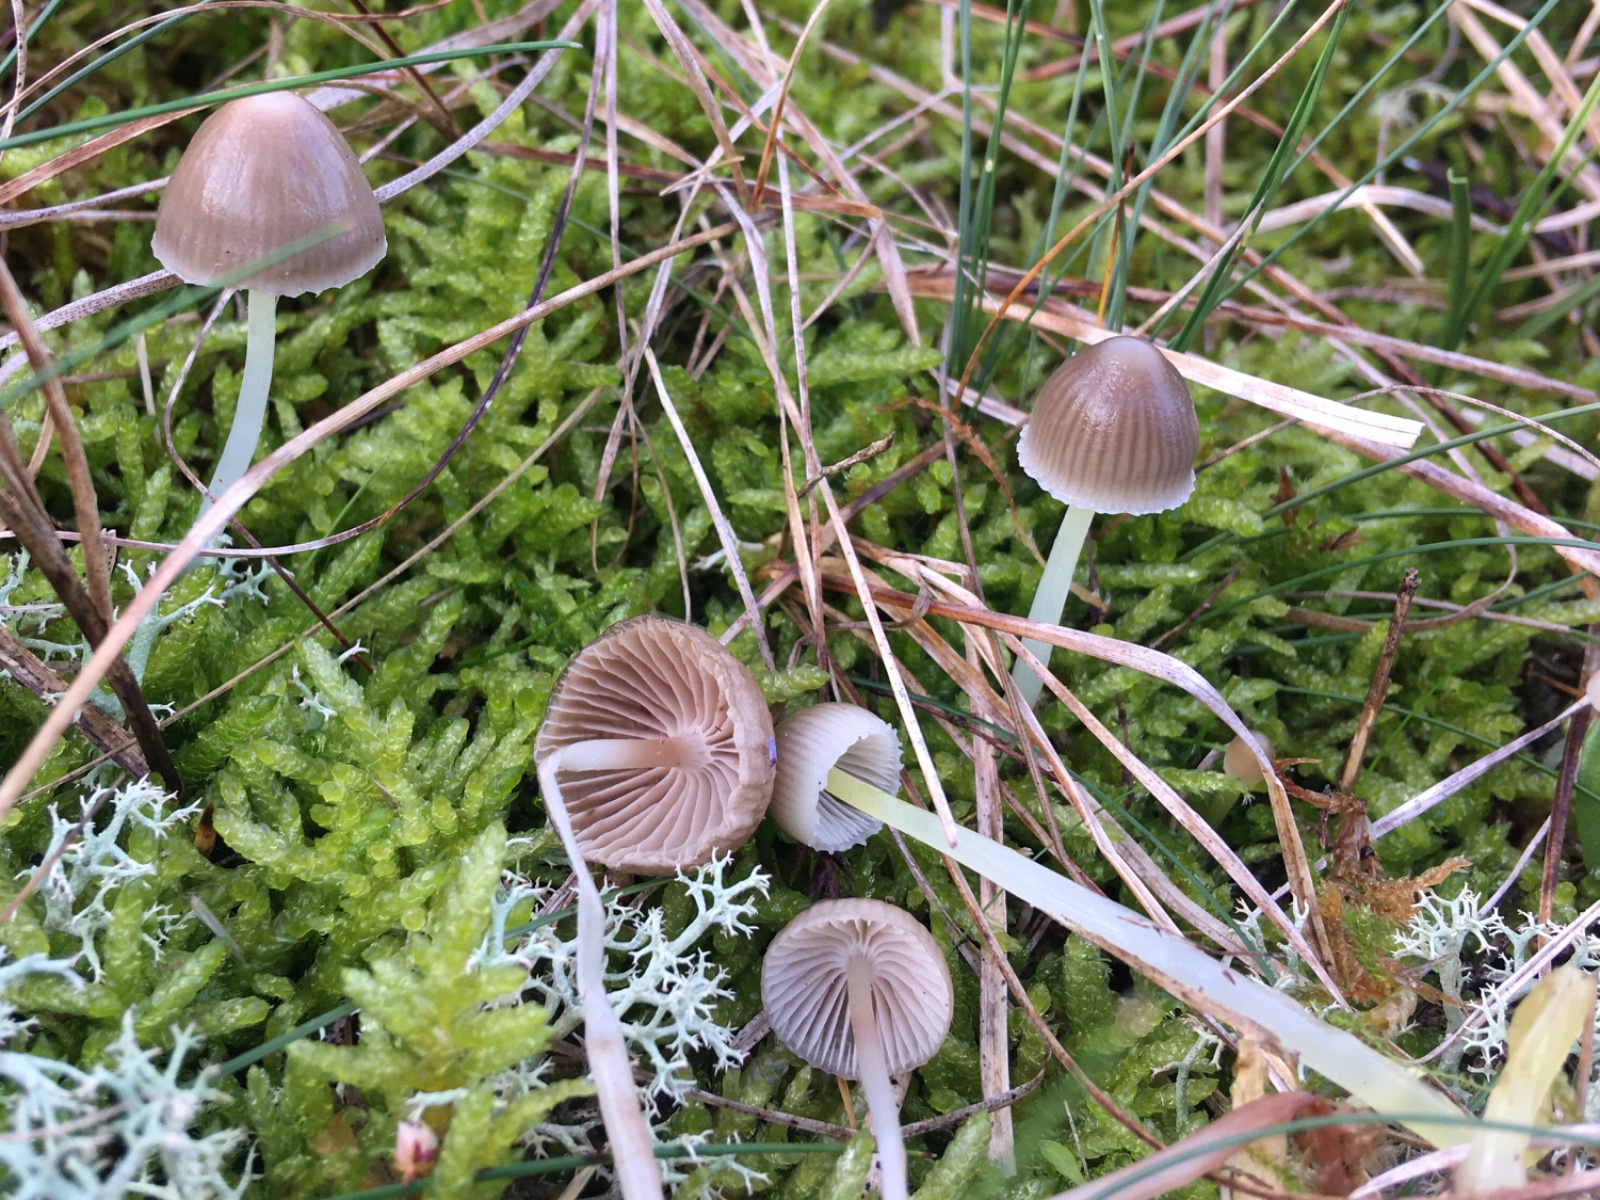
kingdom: Fungi
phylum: Basidiomycota
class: Agaricomycetes
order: Agaricales
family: Mycenaceae
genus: Mycena
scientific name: Mycena epipterygia
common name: gulstokket huesvamp
